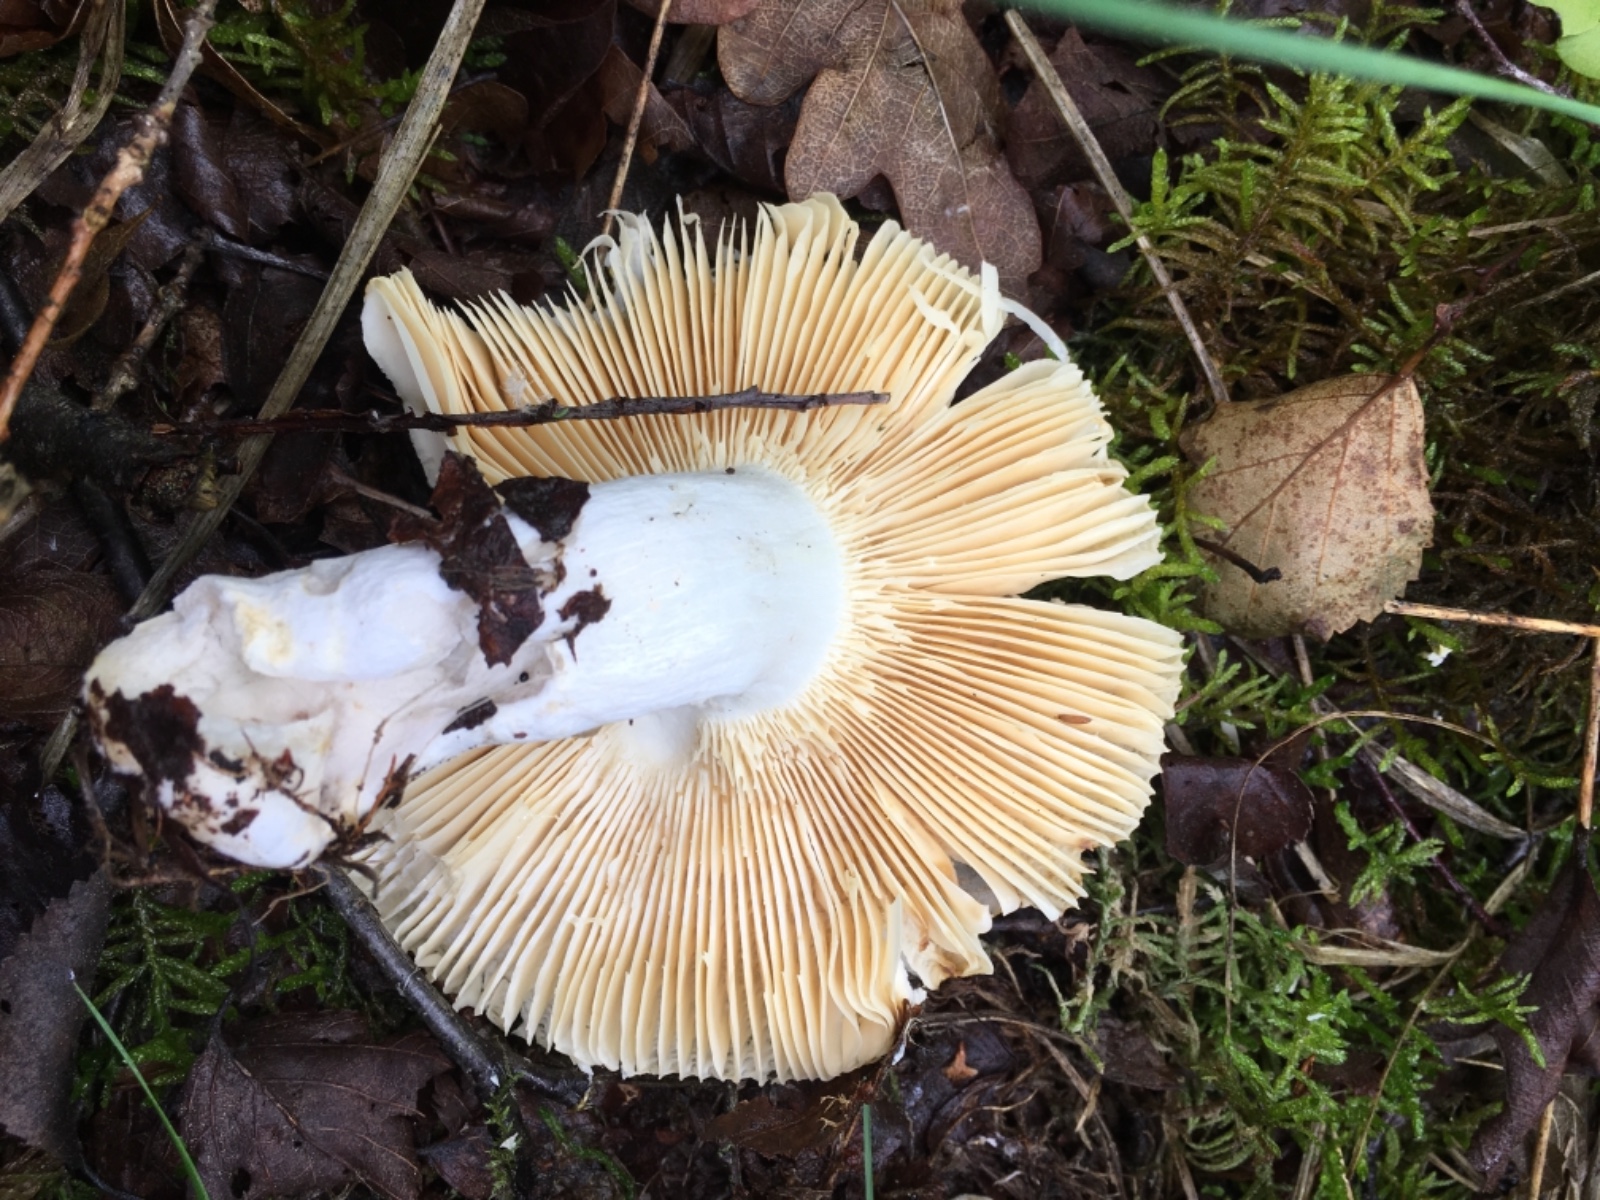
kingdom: Fungi
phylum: Basidiomycota
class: Agaricomycetes
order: Russulales
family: Russulaceae
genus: Russula
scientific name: Russula risigallina
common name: abrikos-skørhat
